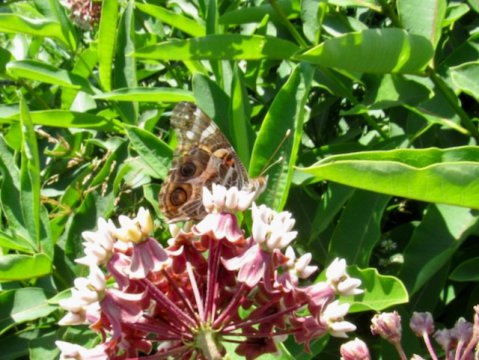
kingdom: Animalia
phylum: Arthropoda
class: Insecta
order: Lepidoptera
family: Nymphalidae
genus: Vanessa
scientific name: Vanessa virginiensis
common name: American Lady
